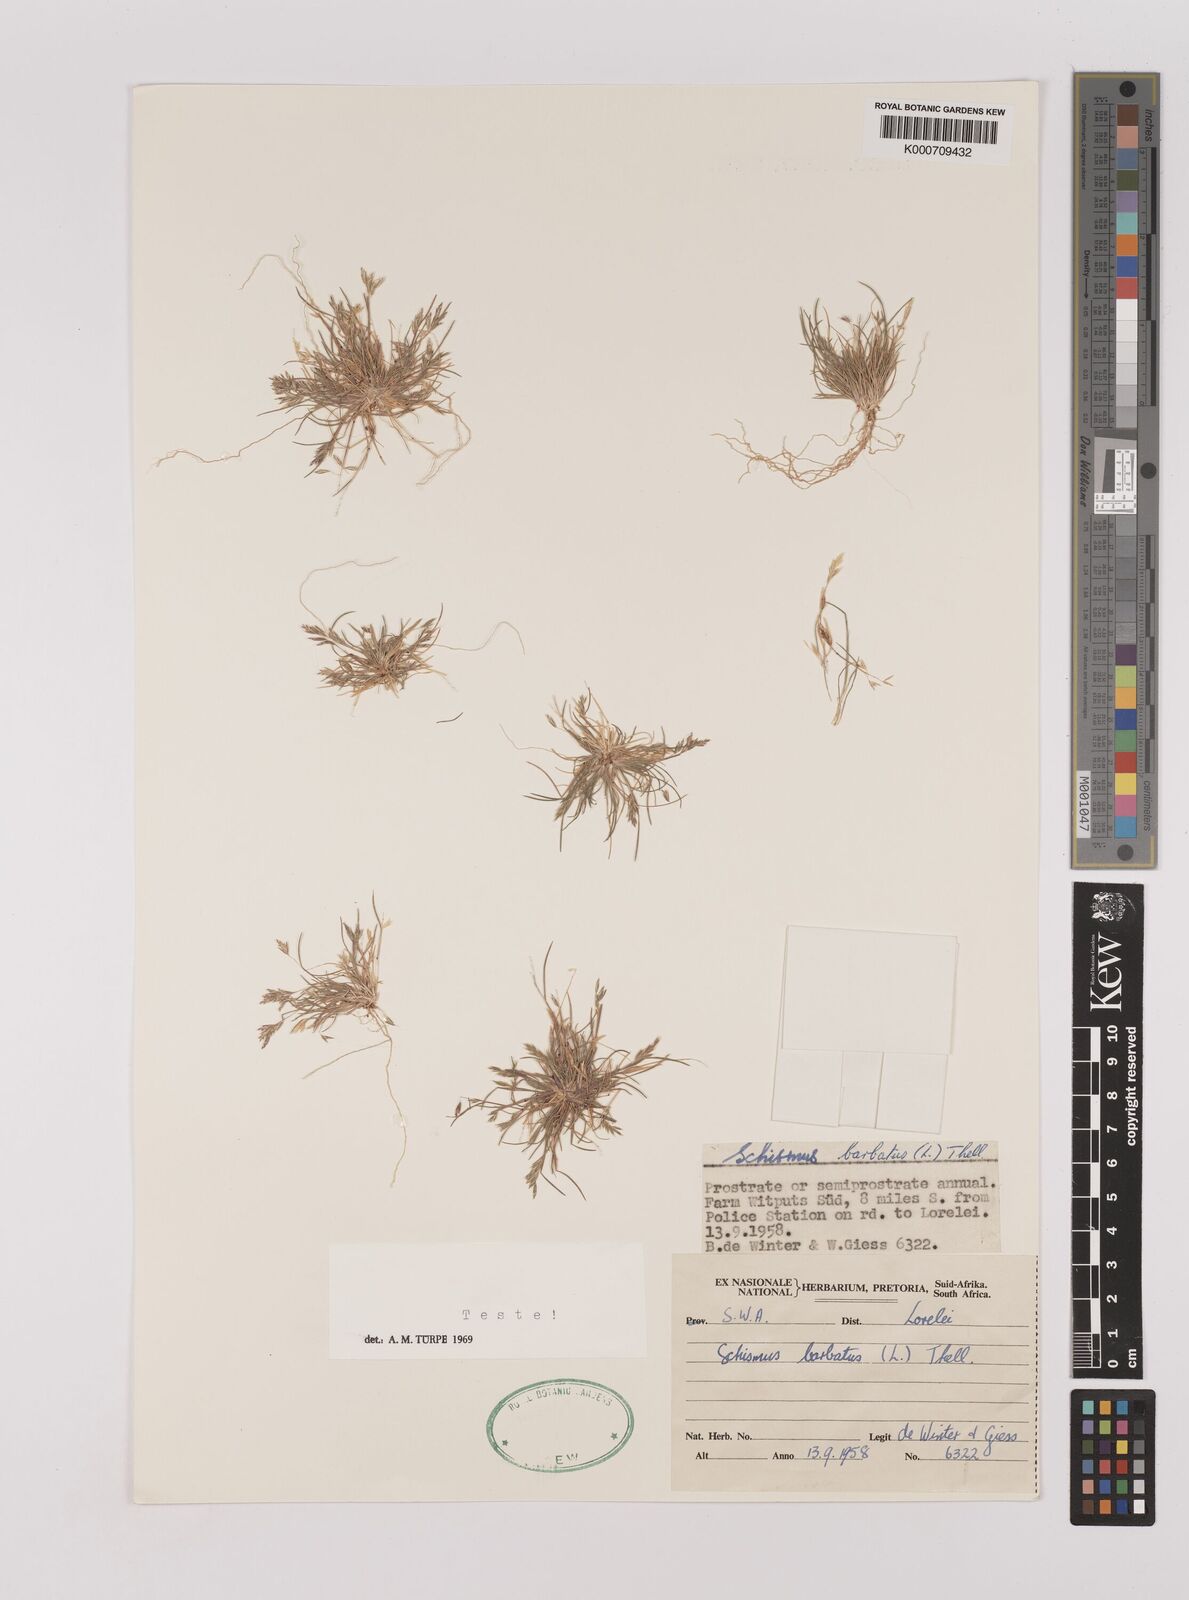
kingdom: Plantae
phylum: Tracheophyta
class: Liliopsida
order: Poales
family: Poaceae
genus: Schismus
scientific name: Schismus barbatus
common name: Kelch-grass
